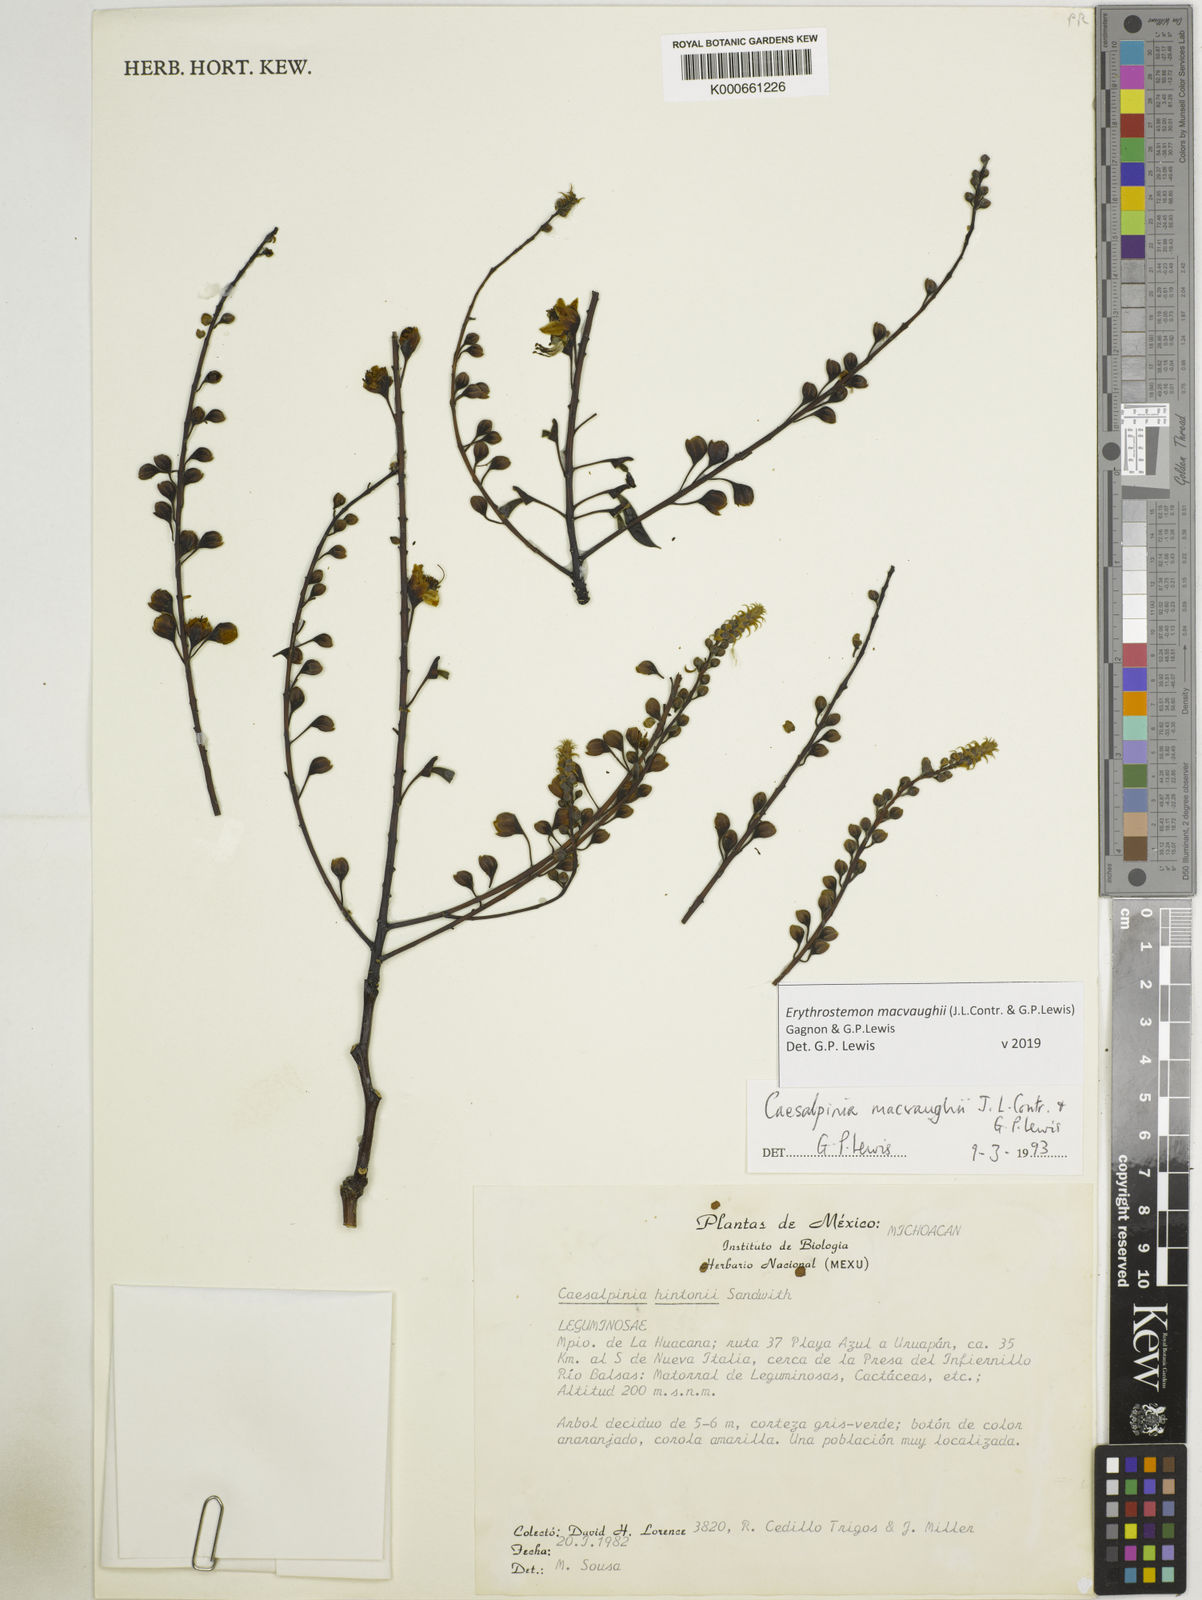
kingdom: Plantae
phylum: Tracheophyta
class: Magnoliopsida
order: Fabales
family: Fabaceae
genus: Erythrostemon
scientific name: Erythrostemon macvaughii
